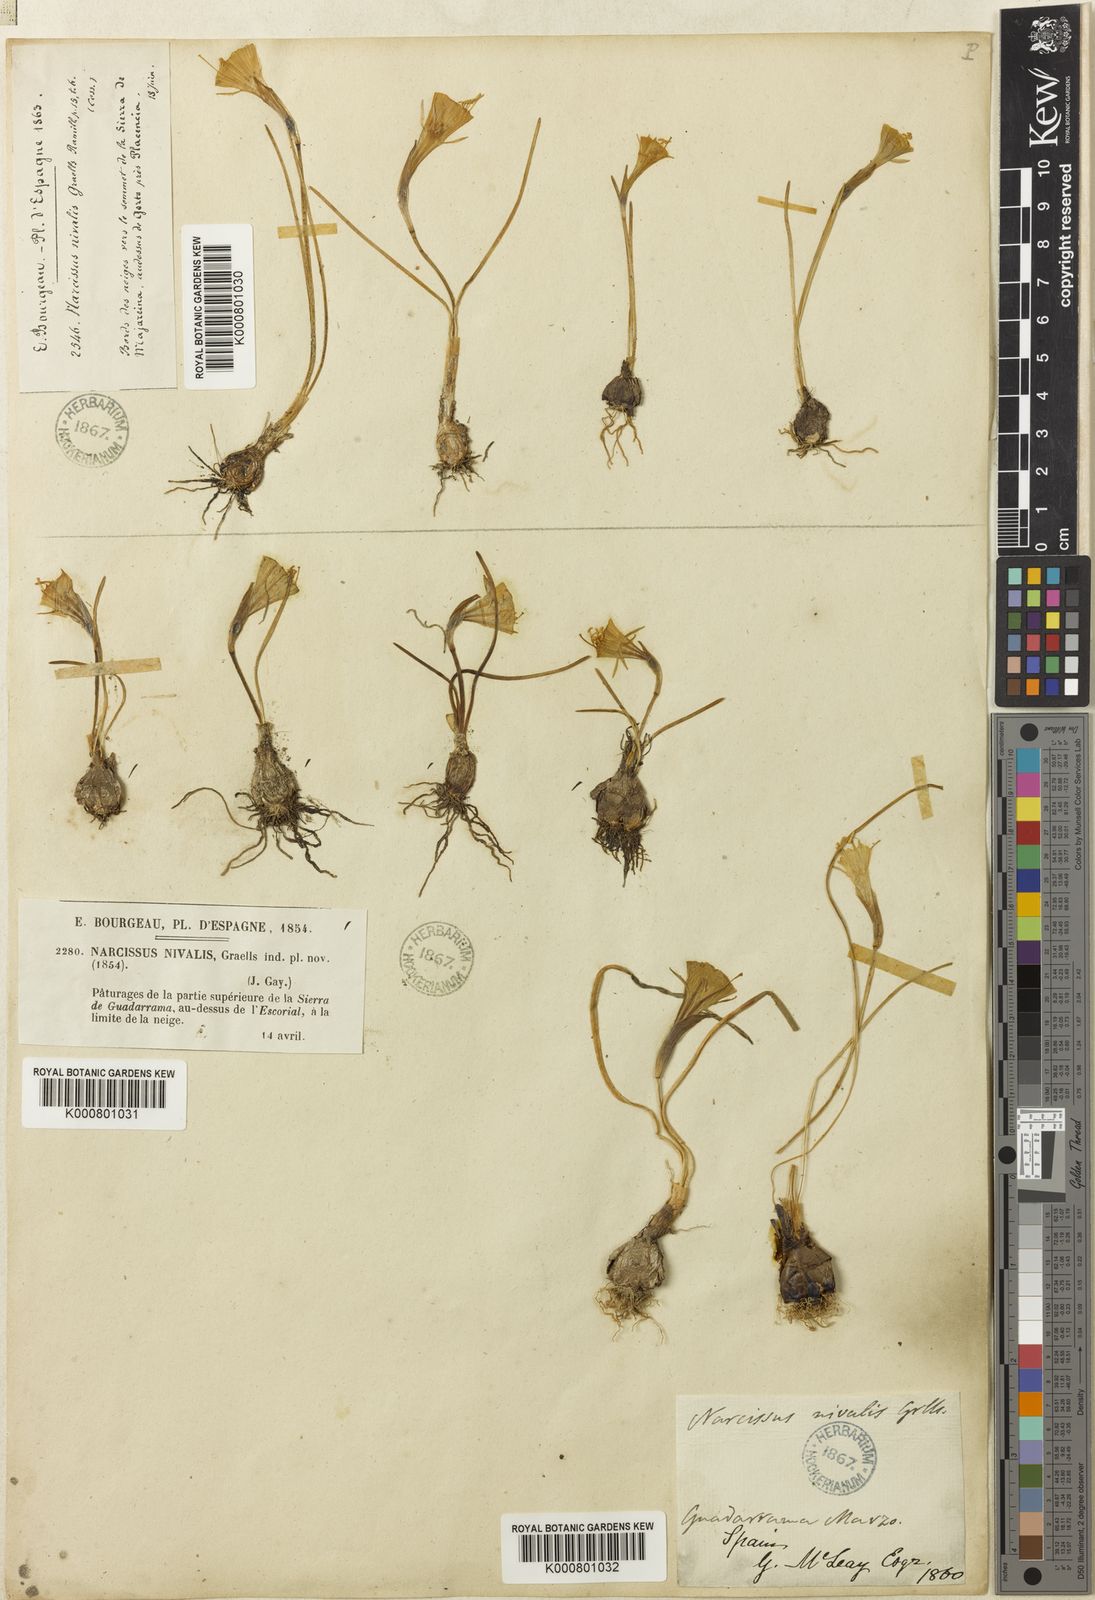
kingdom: Plantae
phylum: Tracheophyta
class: Liliopsida
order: Asparagales
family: Amaryllidaceae
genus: Narcissus
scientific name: Narcissus bulbocodium
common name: Hoop-petticoat daffodil
